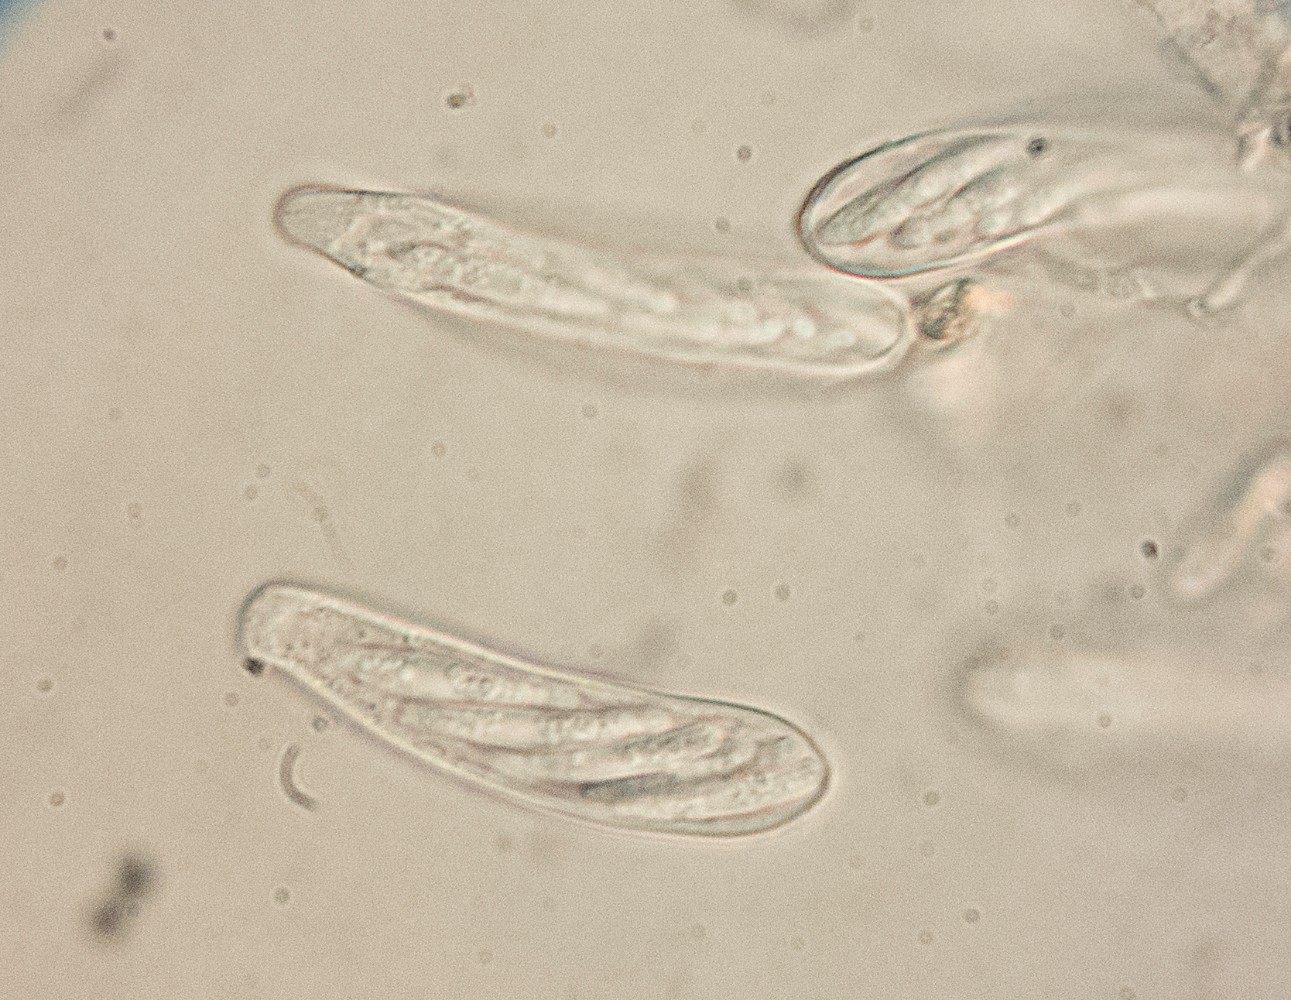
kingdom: Fungi
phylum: Ascomycota
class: Leotiomycetes
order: Helotiales
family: Pezizellaceae
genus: Calycellina
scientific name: Calycellina fagina
